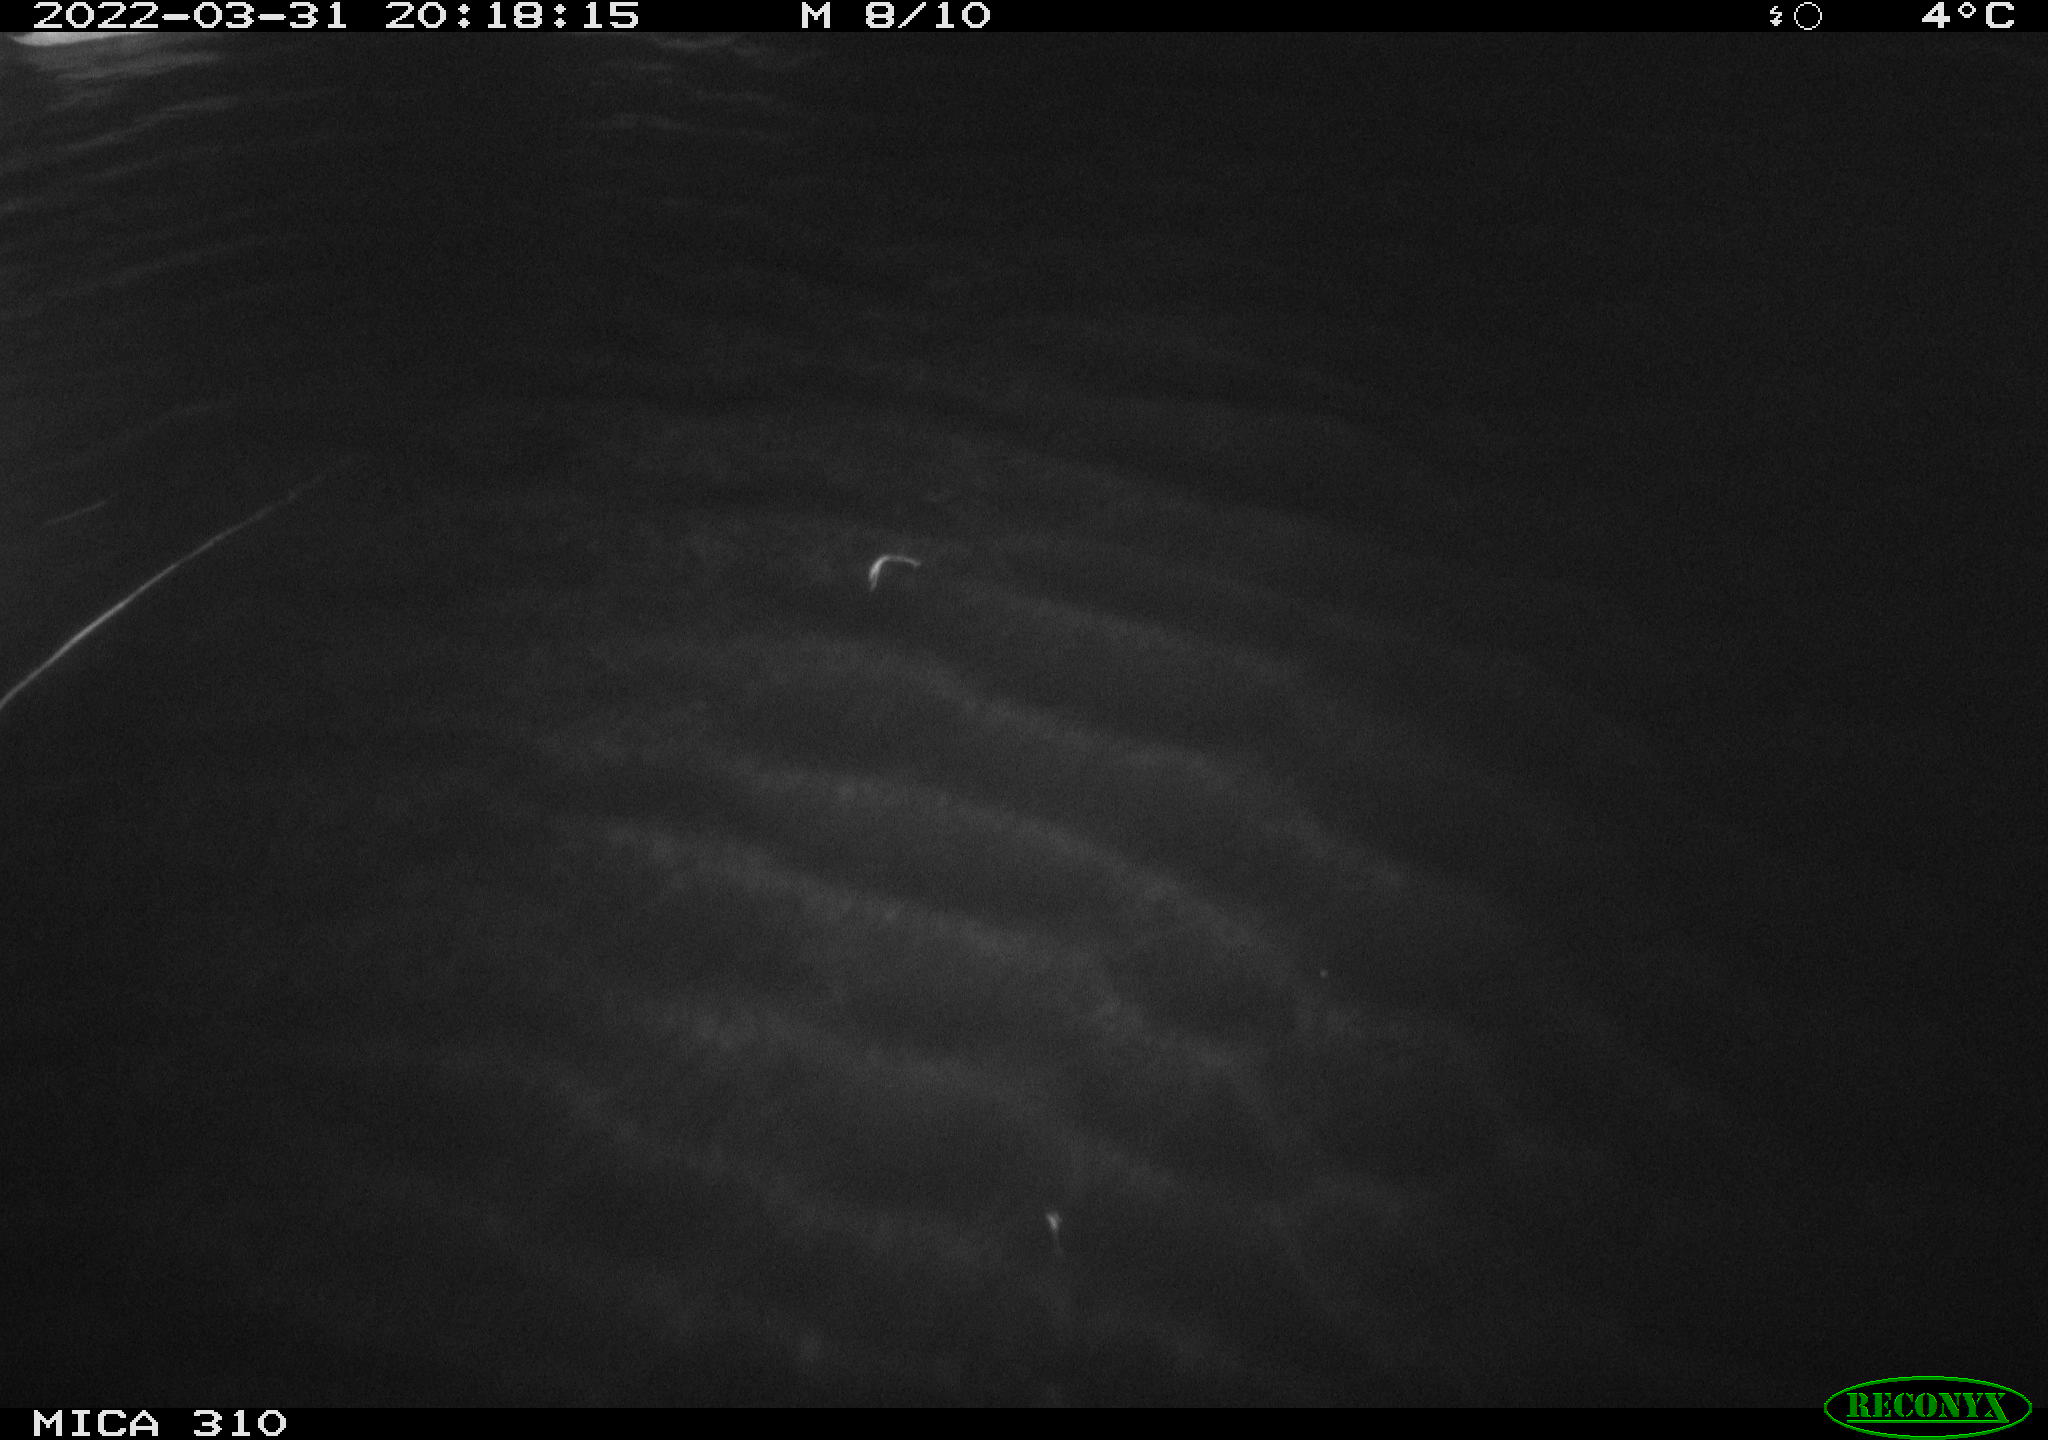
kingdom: Animalia
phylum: Chordata
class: Aves
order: Anseriformes
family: Anatidae
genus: Anas
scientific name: Anas platyrhynchos
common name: Mallard
